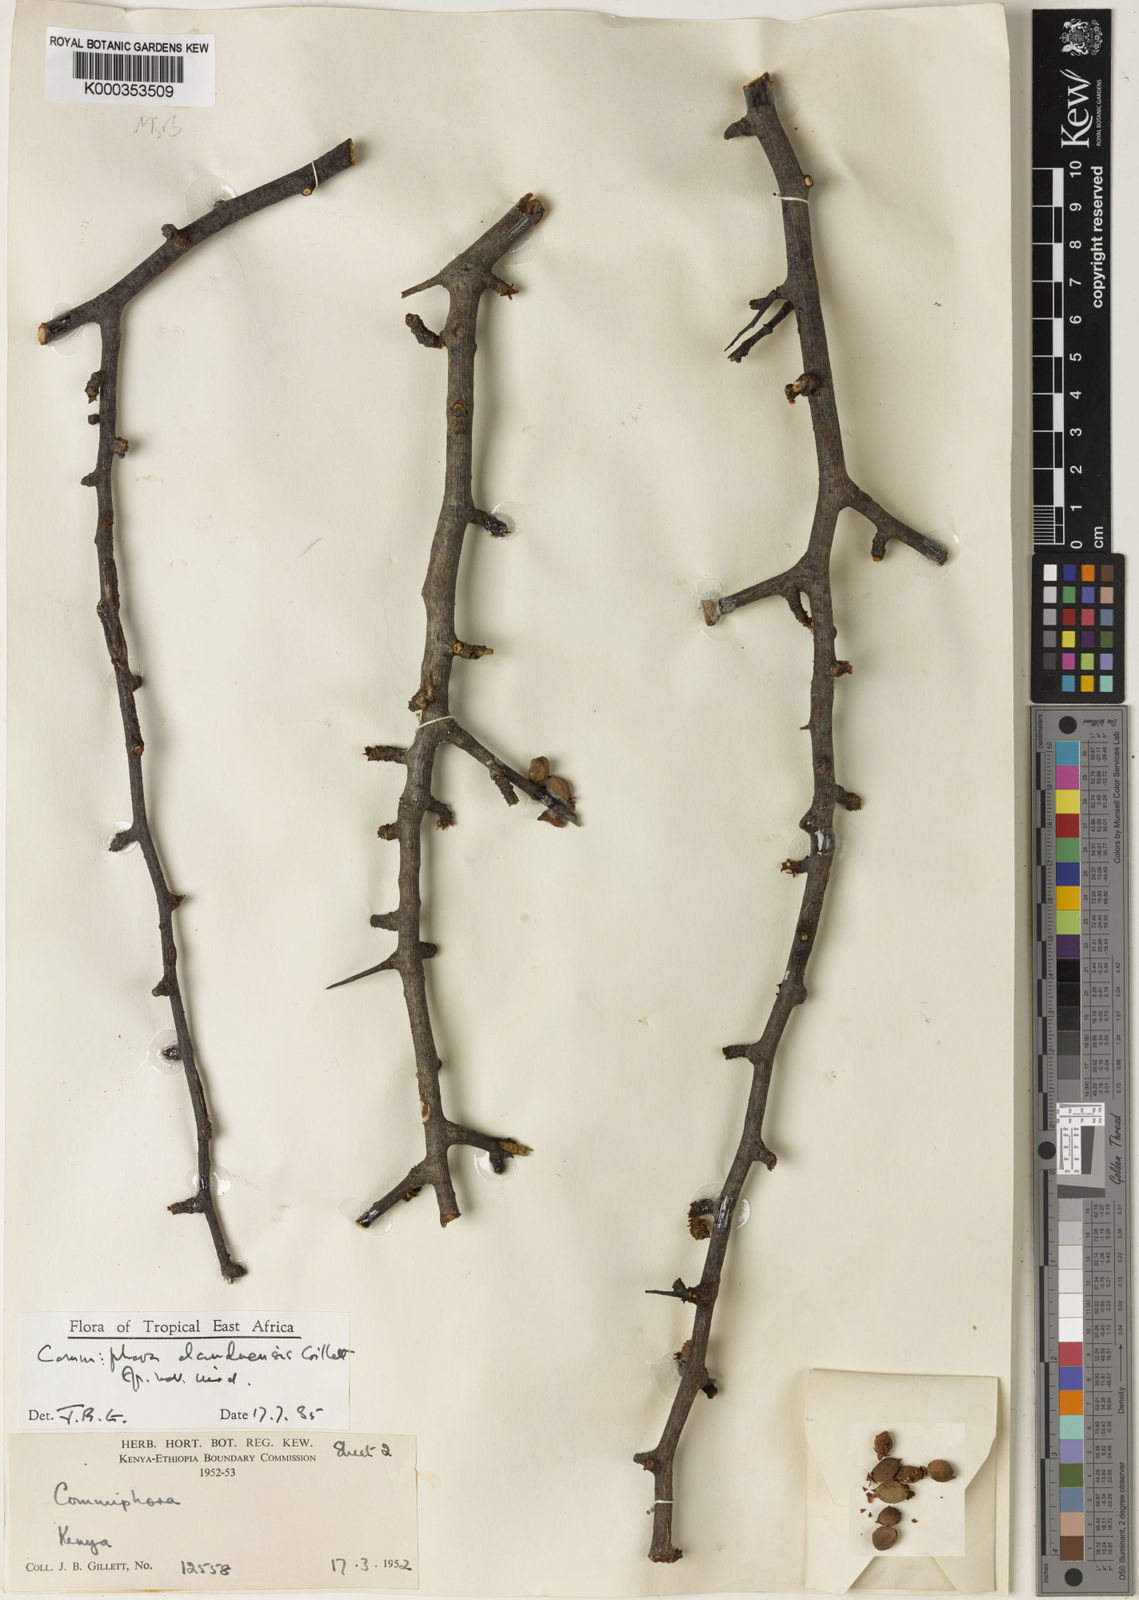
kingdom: Plantae
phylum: Tracheophyta
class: Magnoliopsida
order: Sapindales
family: Burseraceae
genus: Commiphora
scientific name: Commiphora samharensis
